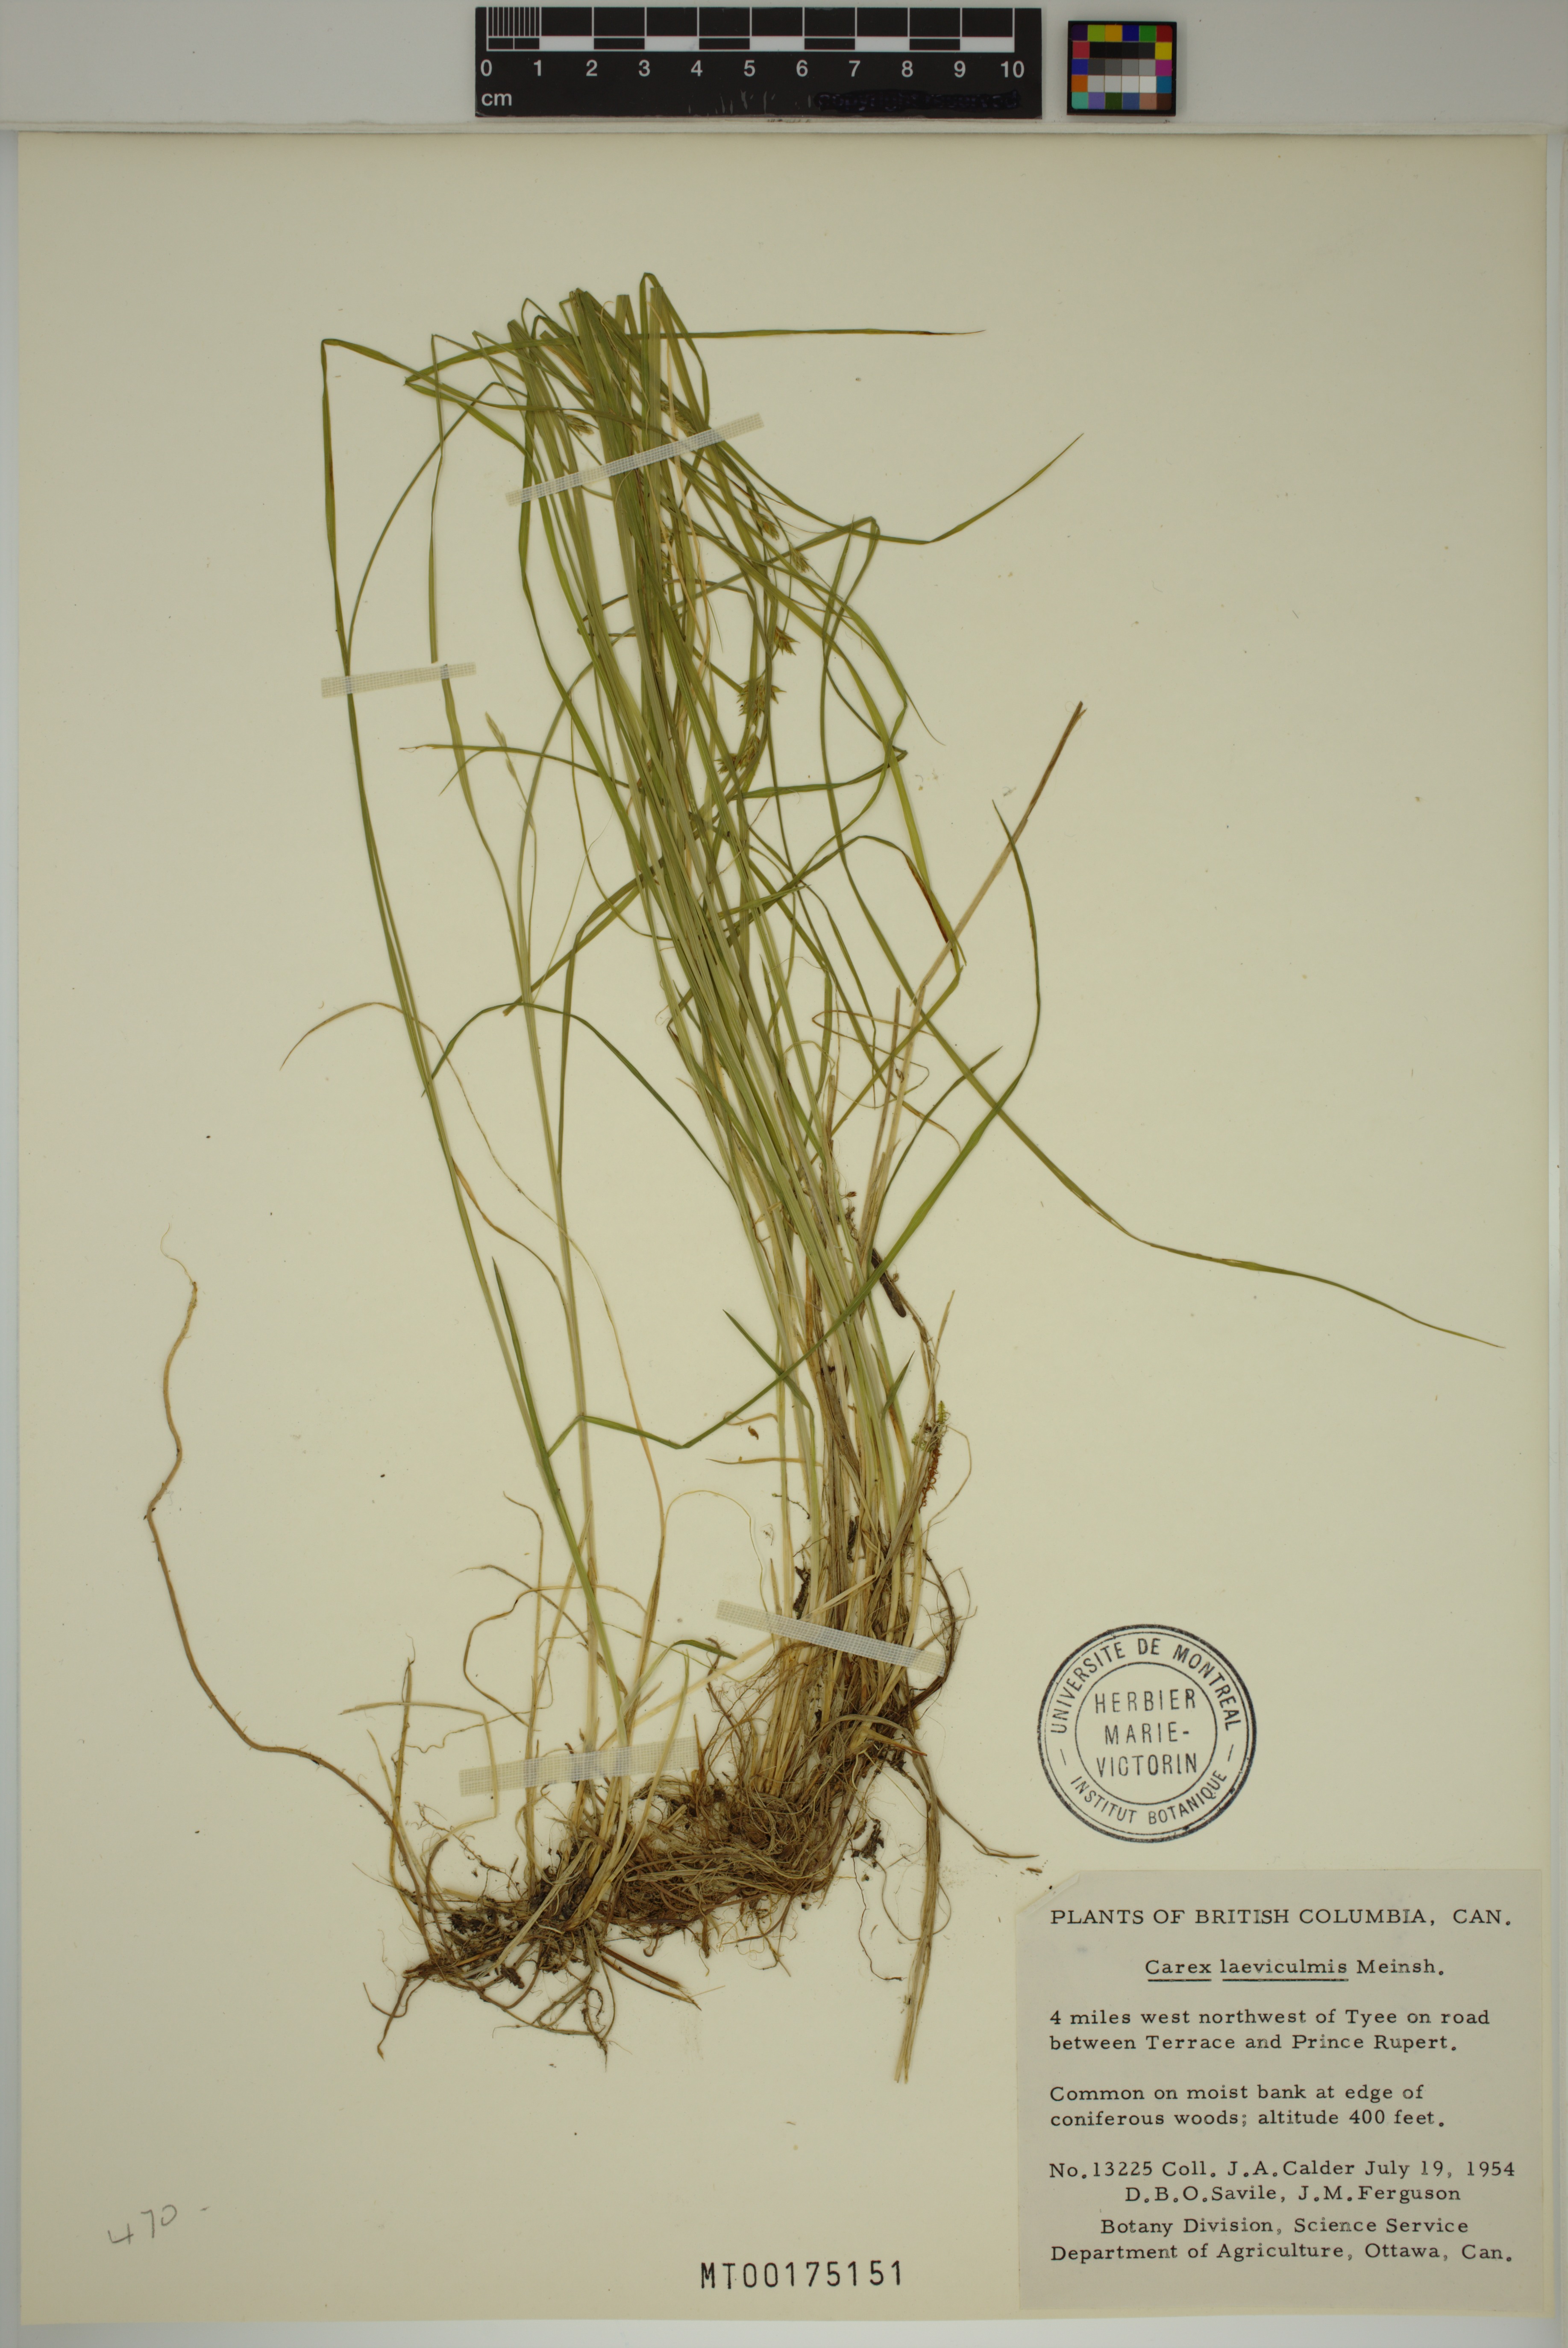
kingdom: Plantae
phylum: Tracheophyta
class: Liliopsida
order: Poales
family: Cyperaceae
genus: Carex
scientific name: Carex laeviculmis
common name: Smooth sedge
